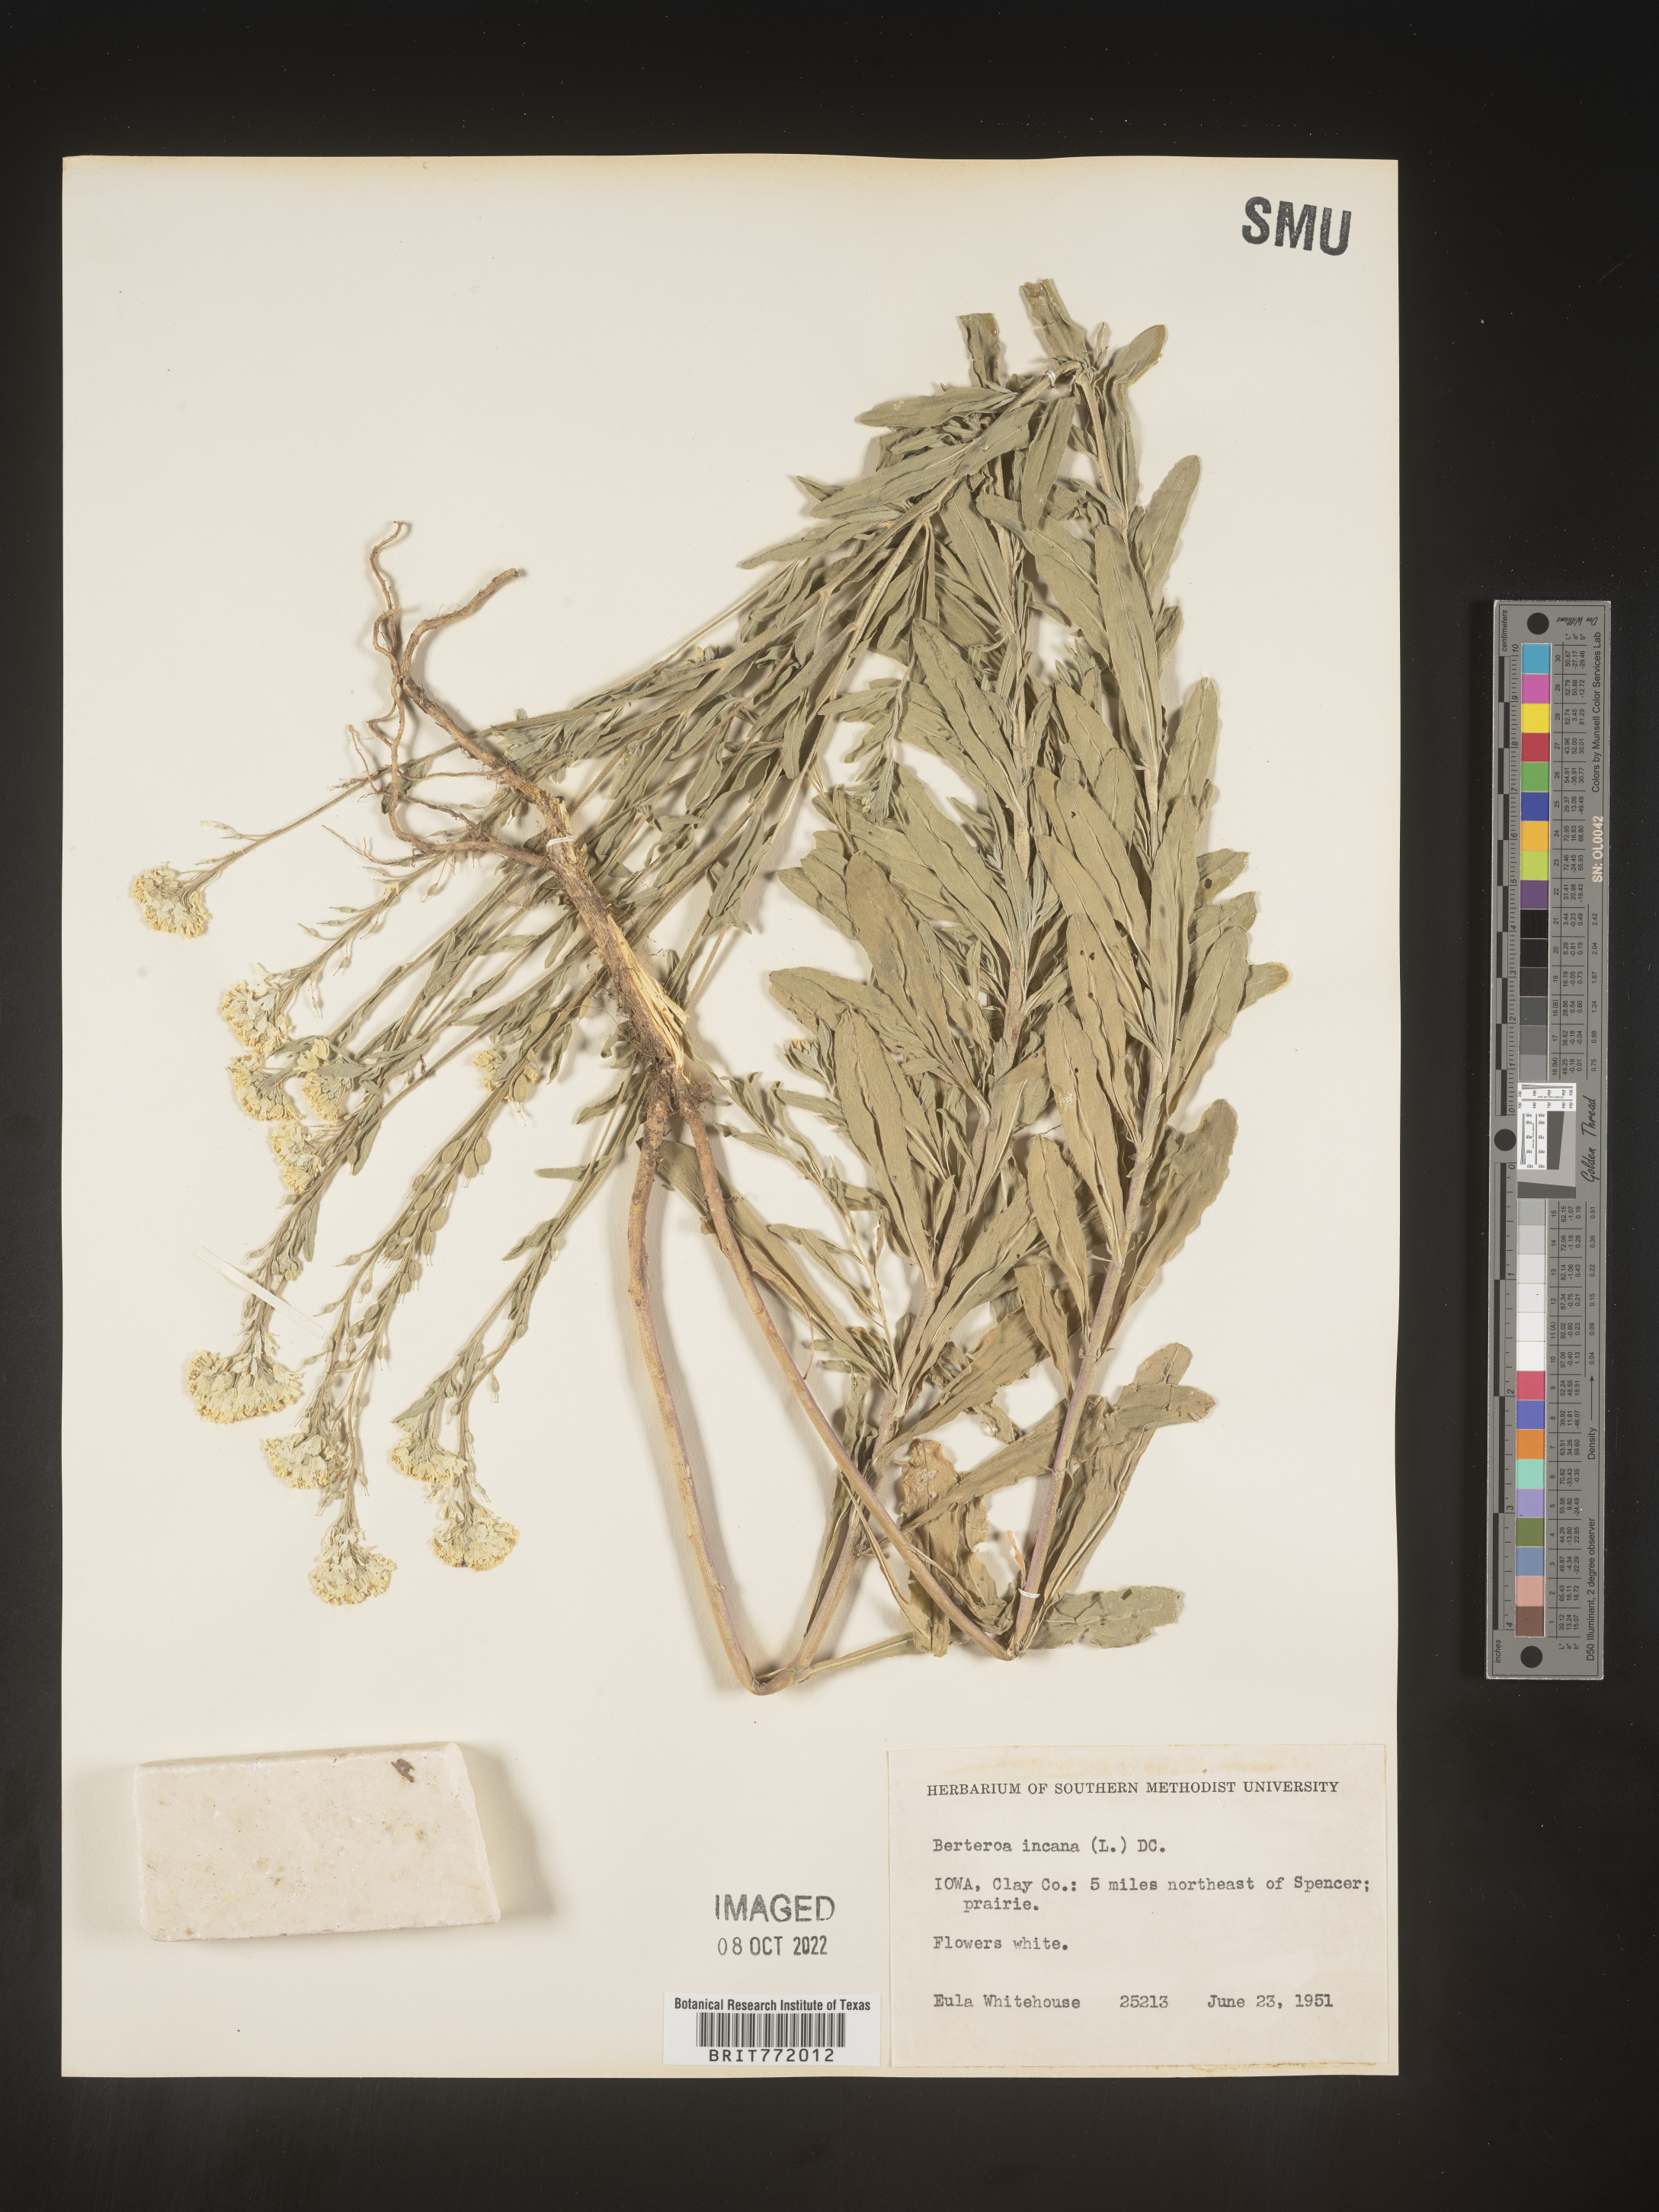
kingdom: Plantae
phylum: Tracheophyta
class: Magnoliopsida
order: Brassicales
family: Brassicaceae
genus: Berteroa
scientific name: Berteroa incana
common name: Hoary alison
